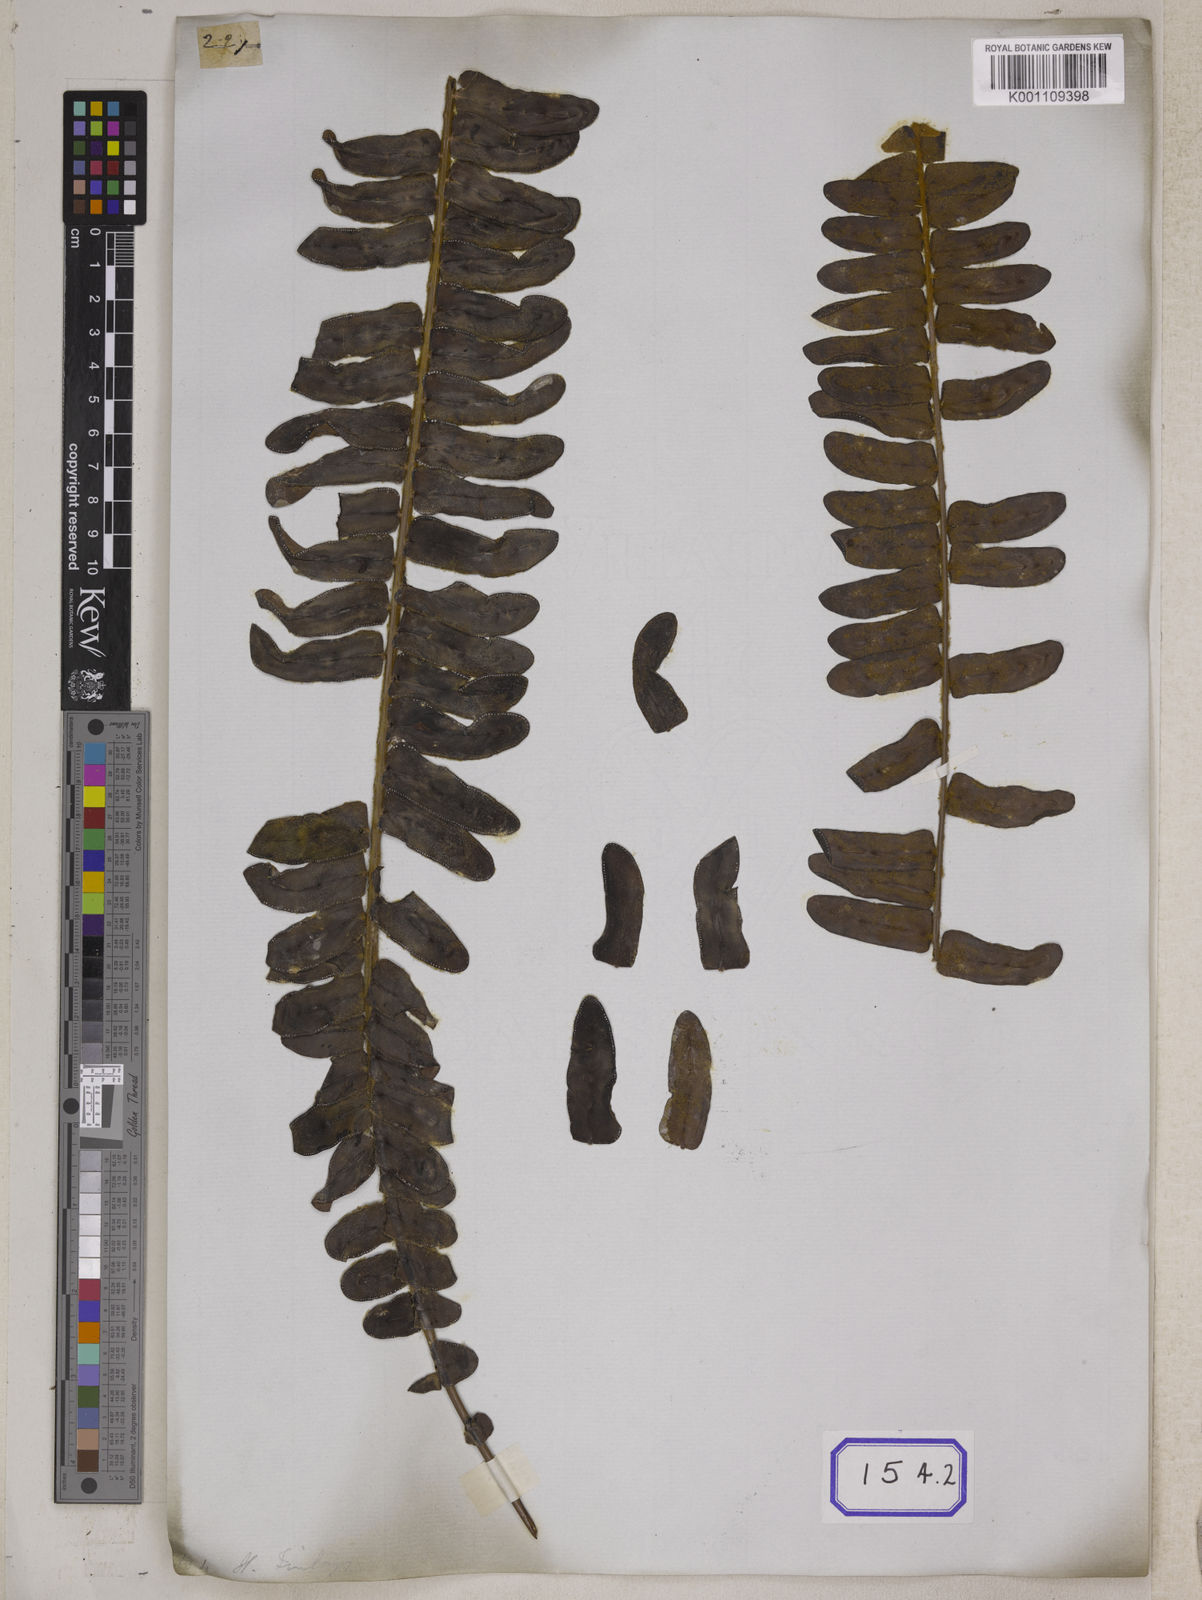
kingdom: Plantae
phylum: Tracheophyta
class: Polypodiopsida
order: Polypodiales
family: Nephrolepidaceae
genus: Nephrolepis
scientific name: Nephrolepis radicans
